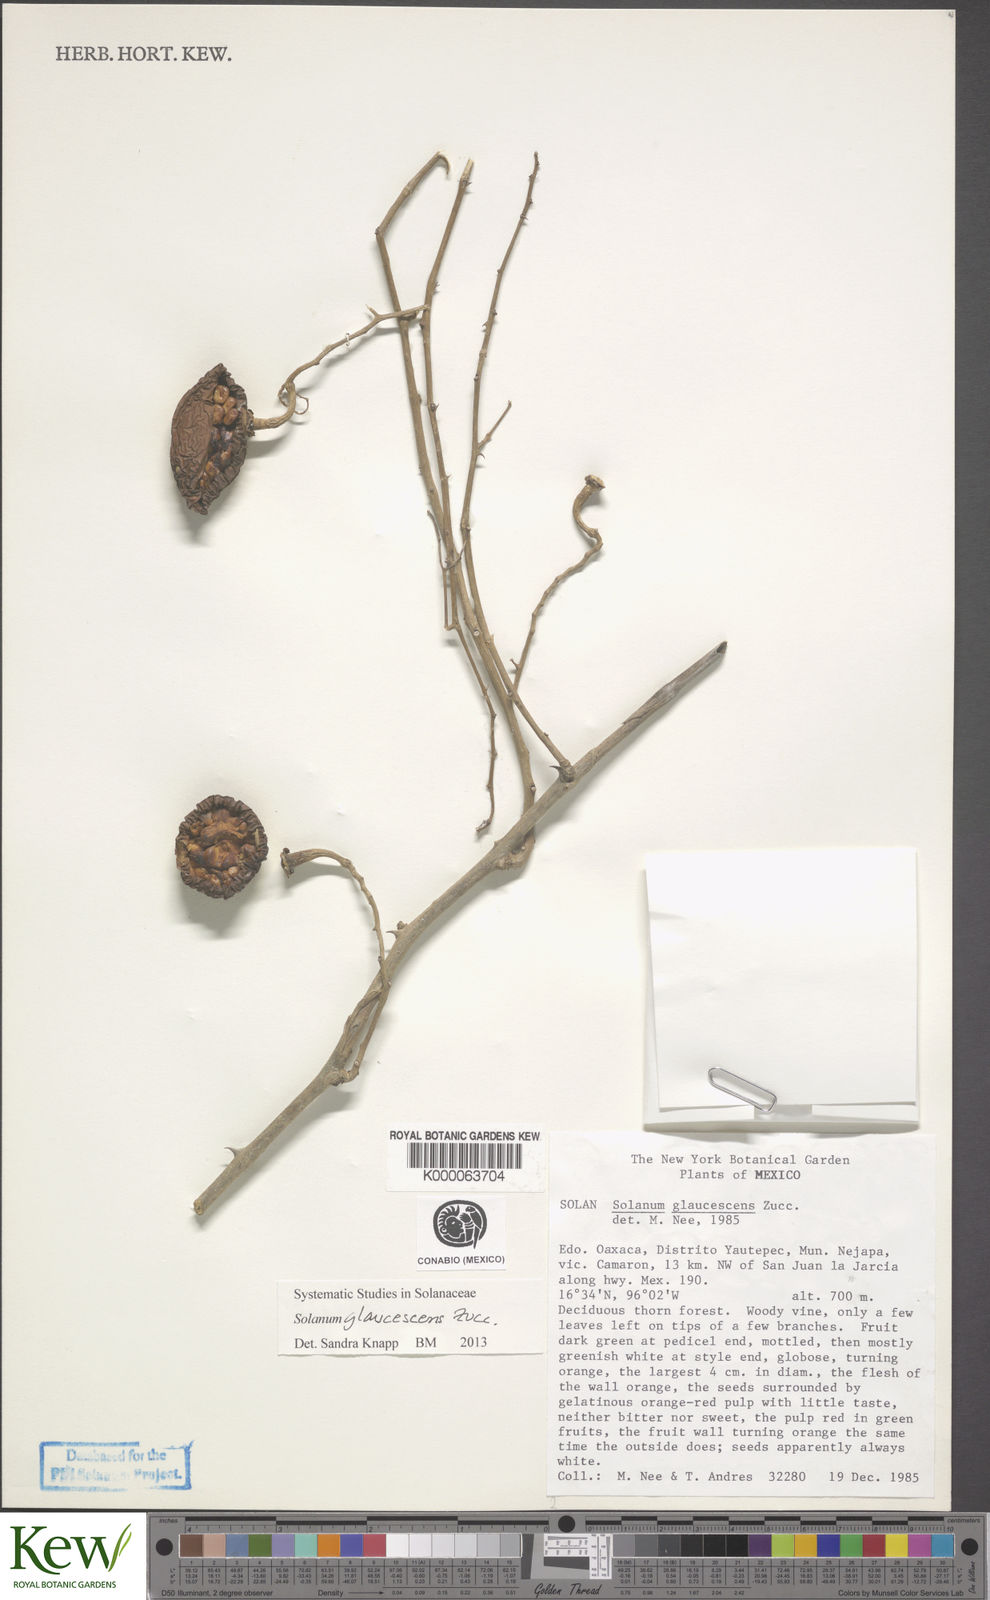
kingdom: Plantae
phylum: Tracheophyta
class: Magnoliopsida
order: Solanales
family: Solanaceae
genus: Solanum
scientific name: Solanum
